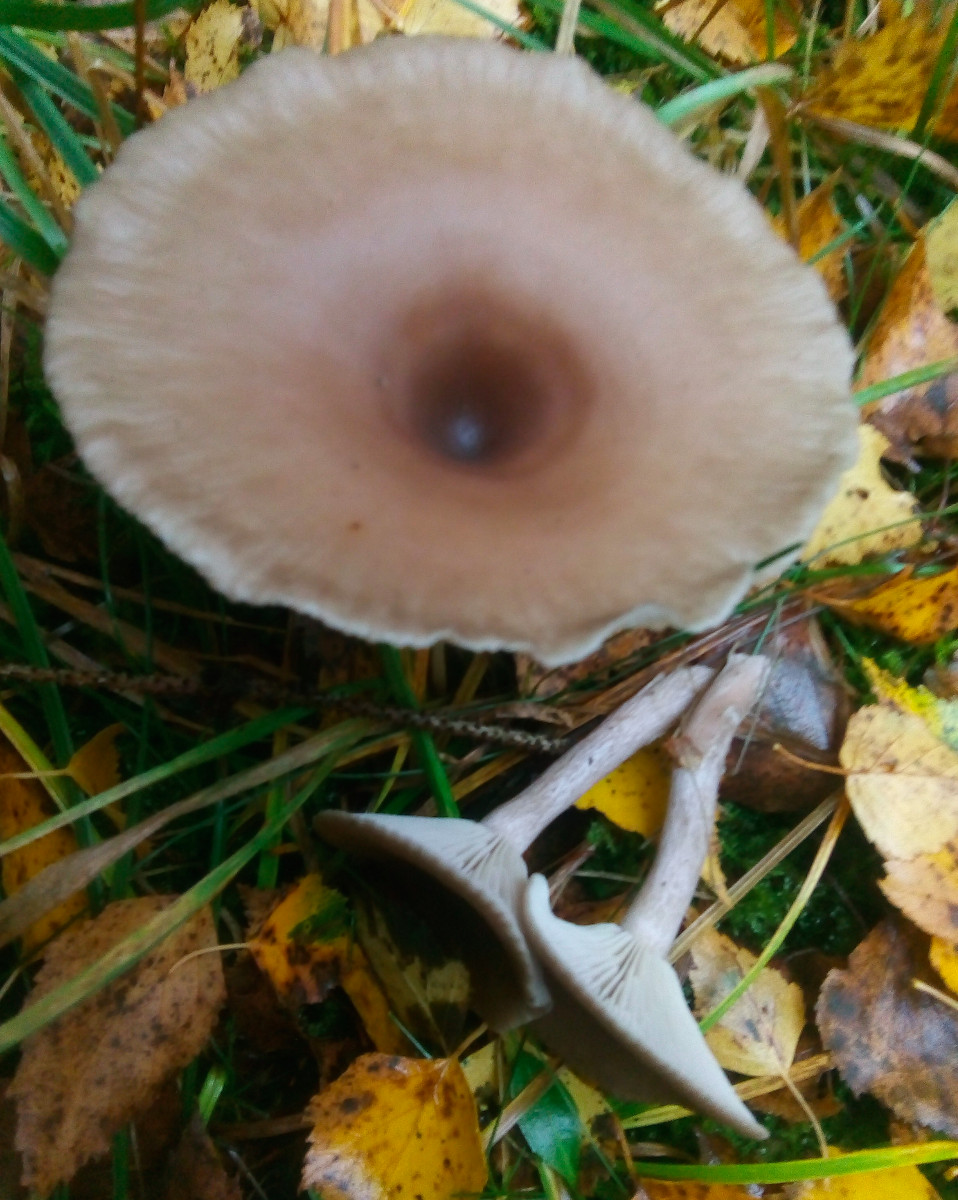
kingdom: Fungi
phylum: Basidiomycota
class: Agaricomycetes
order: Agaricales
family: Pseudoclitocybaceae
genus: Pseudoclitocybe
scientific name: Pseudoclitocybe cyathiformis
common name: almindelig bægertragthat
